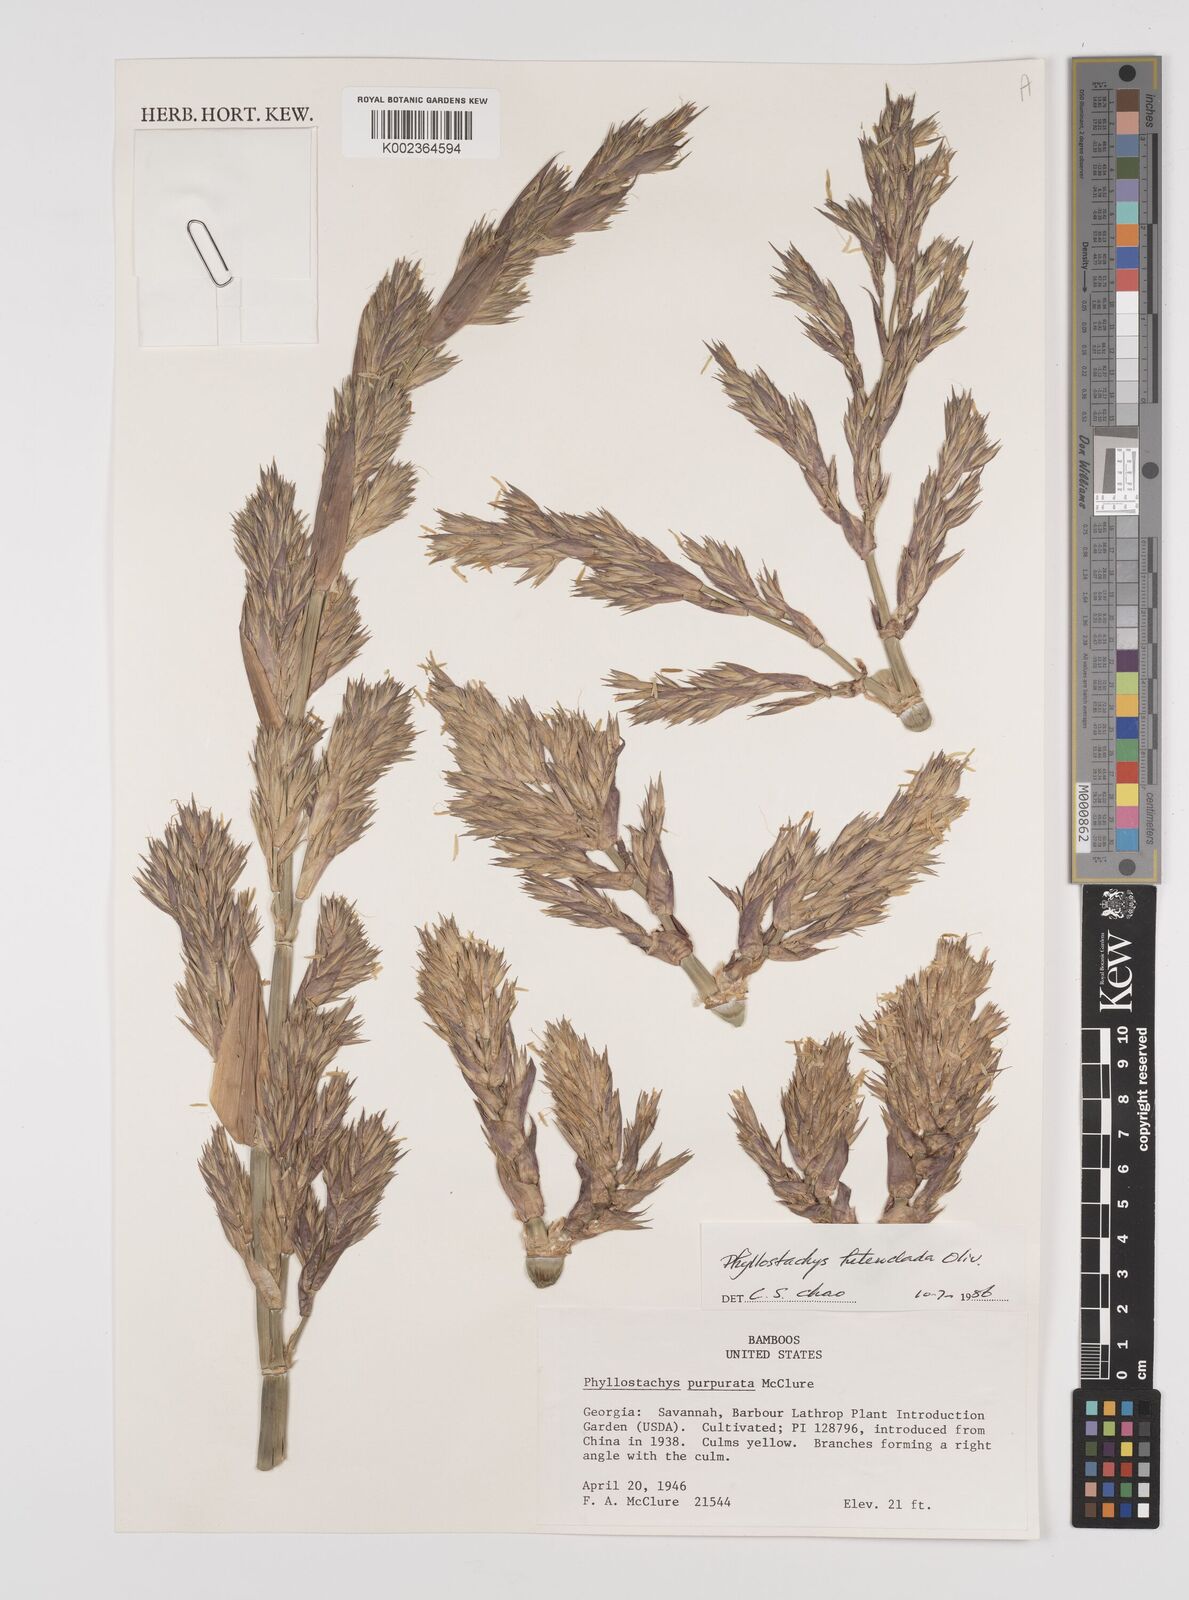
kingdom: Plantae
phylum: Tracheophyta
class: Liliopsida
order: Poales
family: Poaceae
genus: Phyllostachys
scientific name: Phyllostachys heteroclada
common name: Fishscale bamboo
